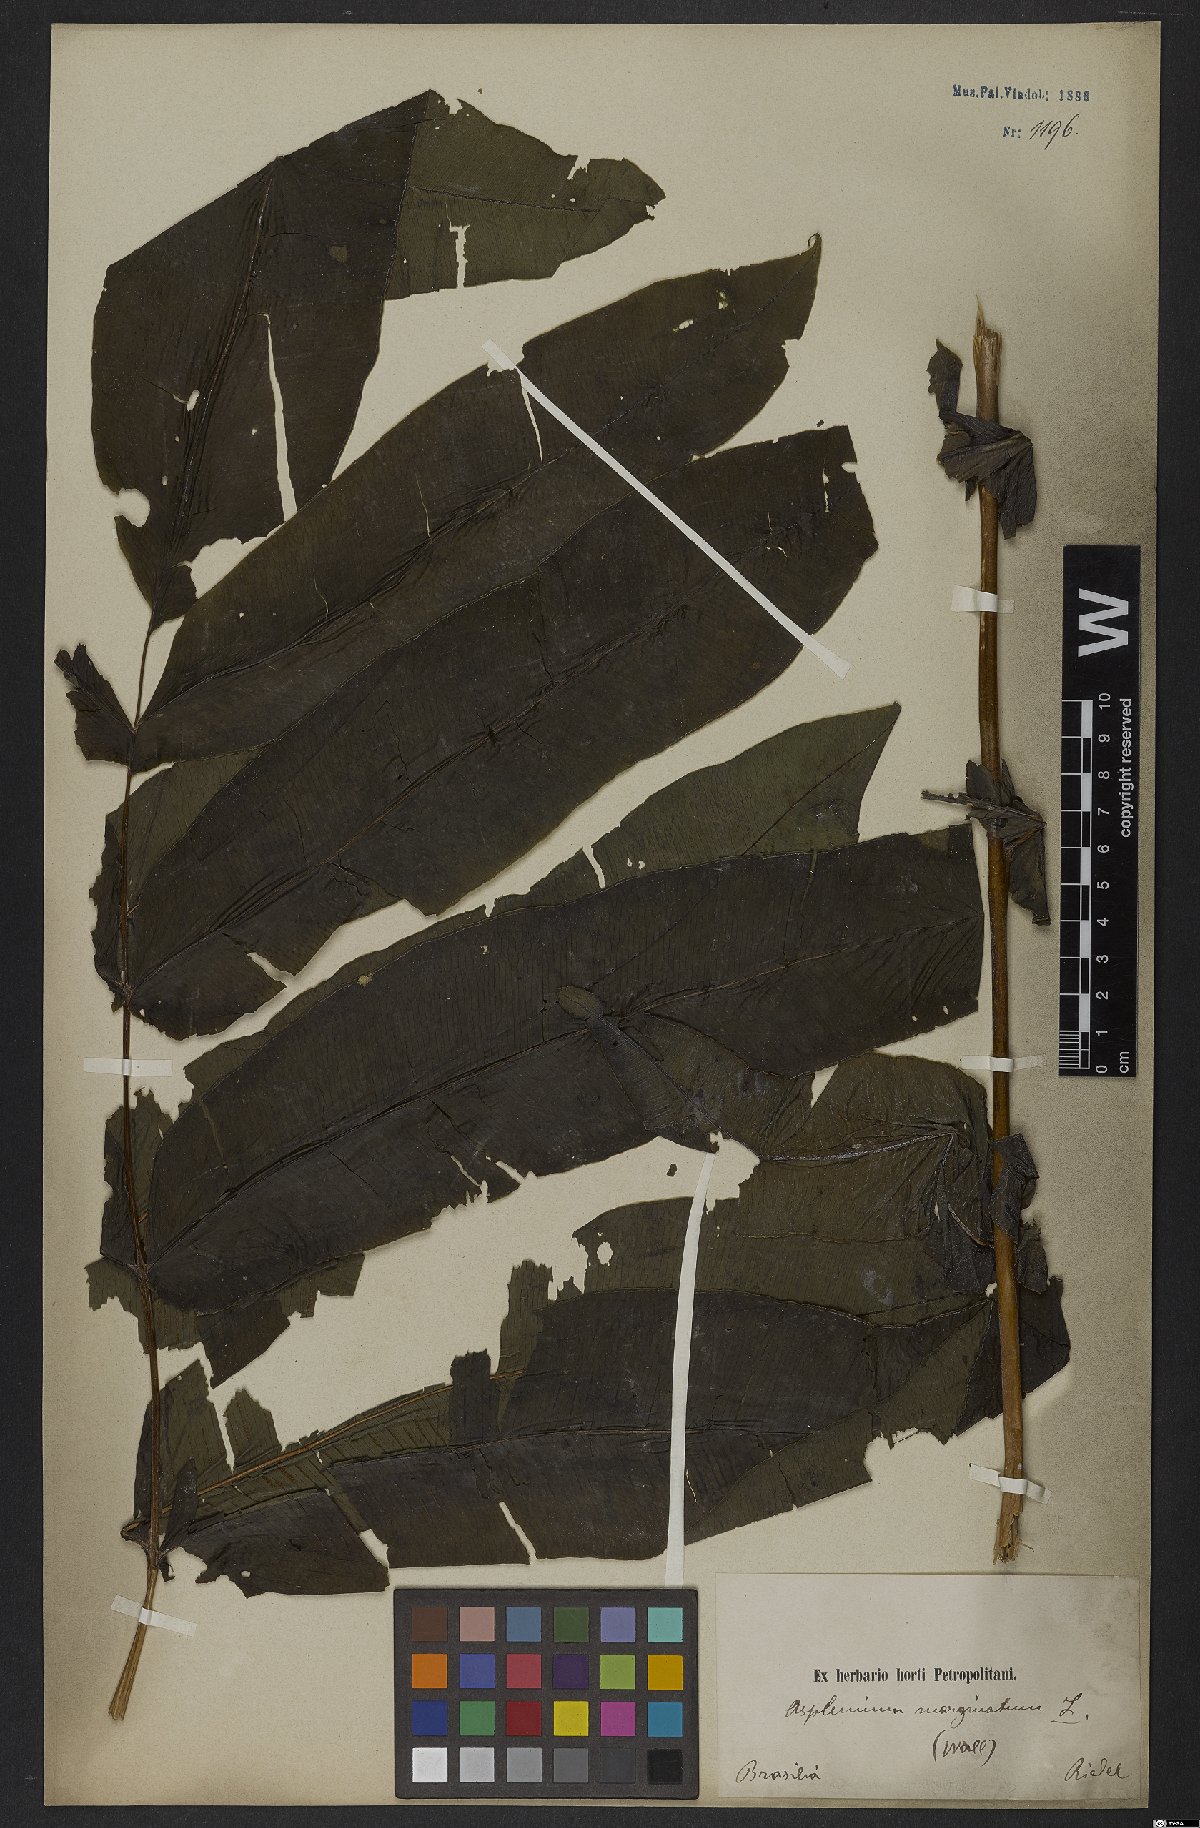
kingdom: Plantae
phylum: Tracheophyta
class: Polypodiopsida
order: Polypodiales
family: Hemidictyaceae
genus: Hemidictyum
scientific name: Hemidictyum marginatum
